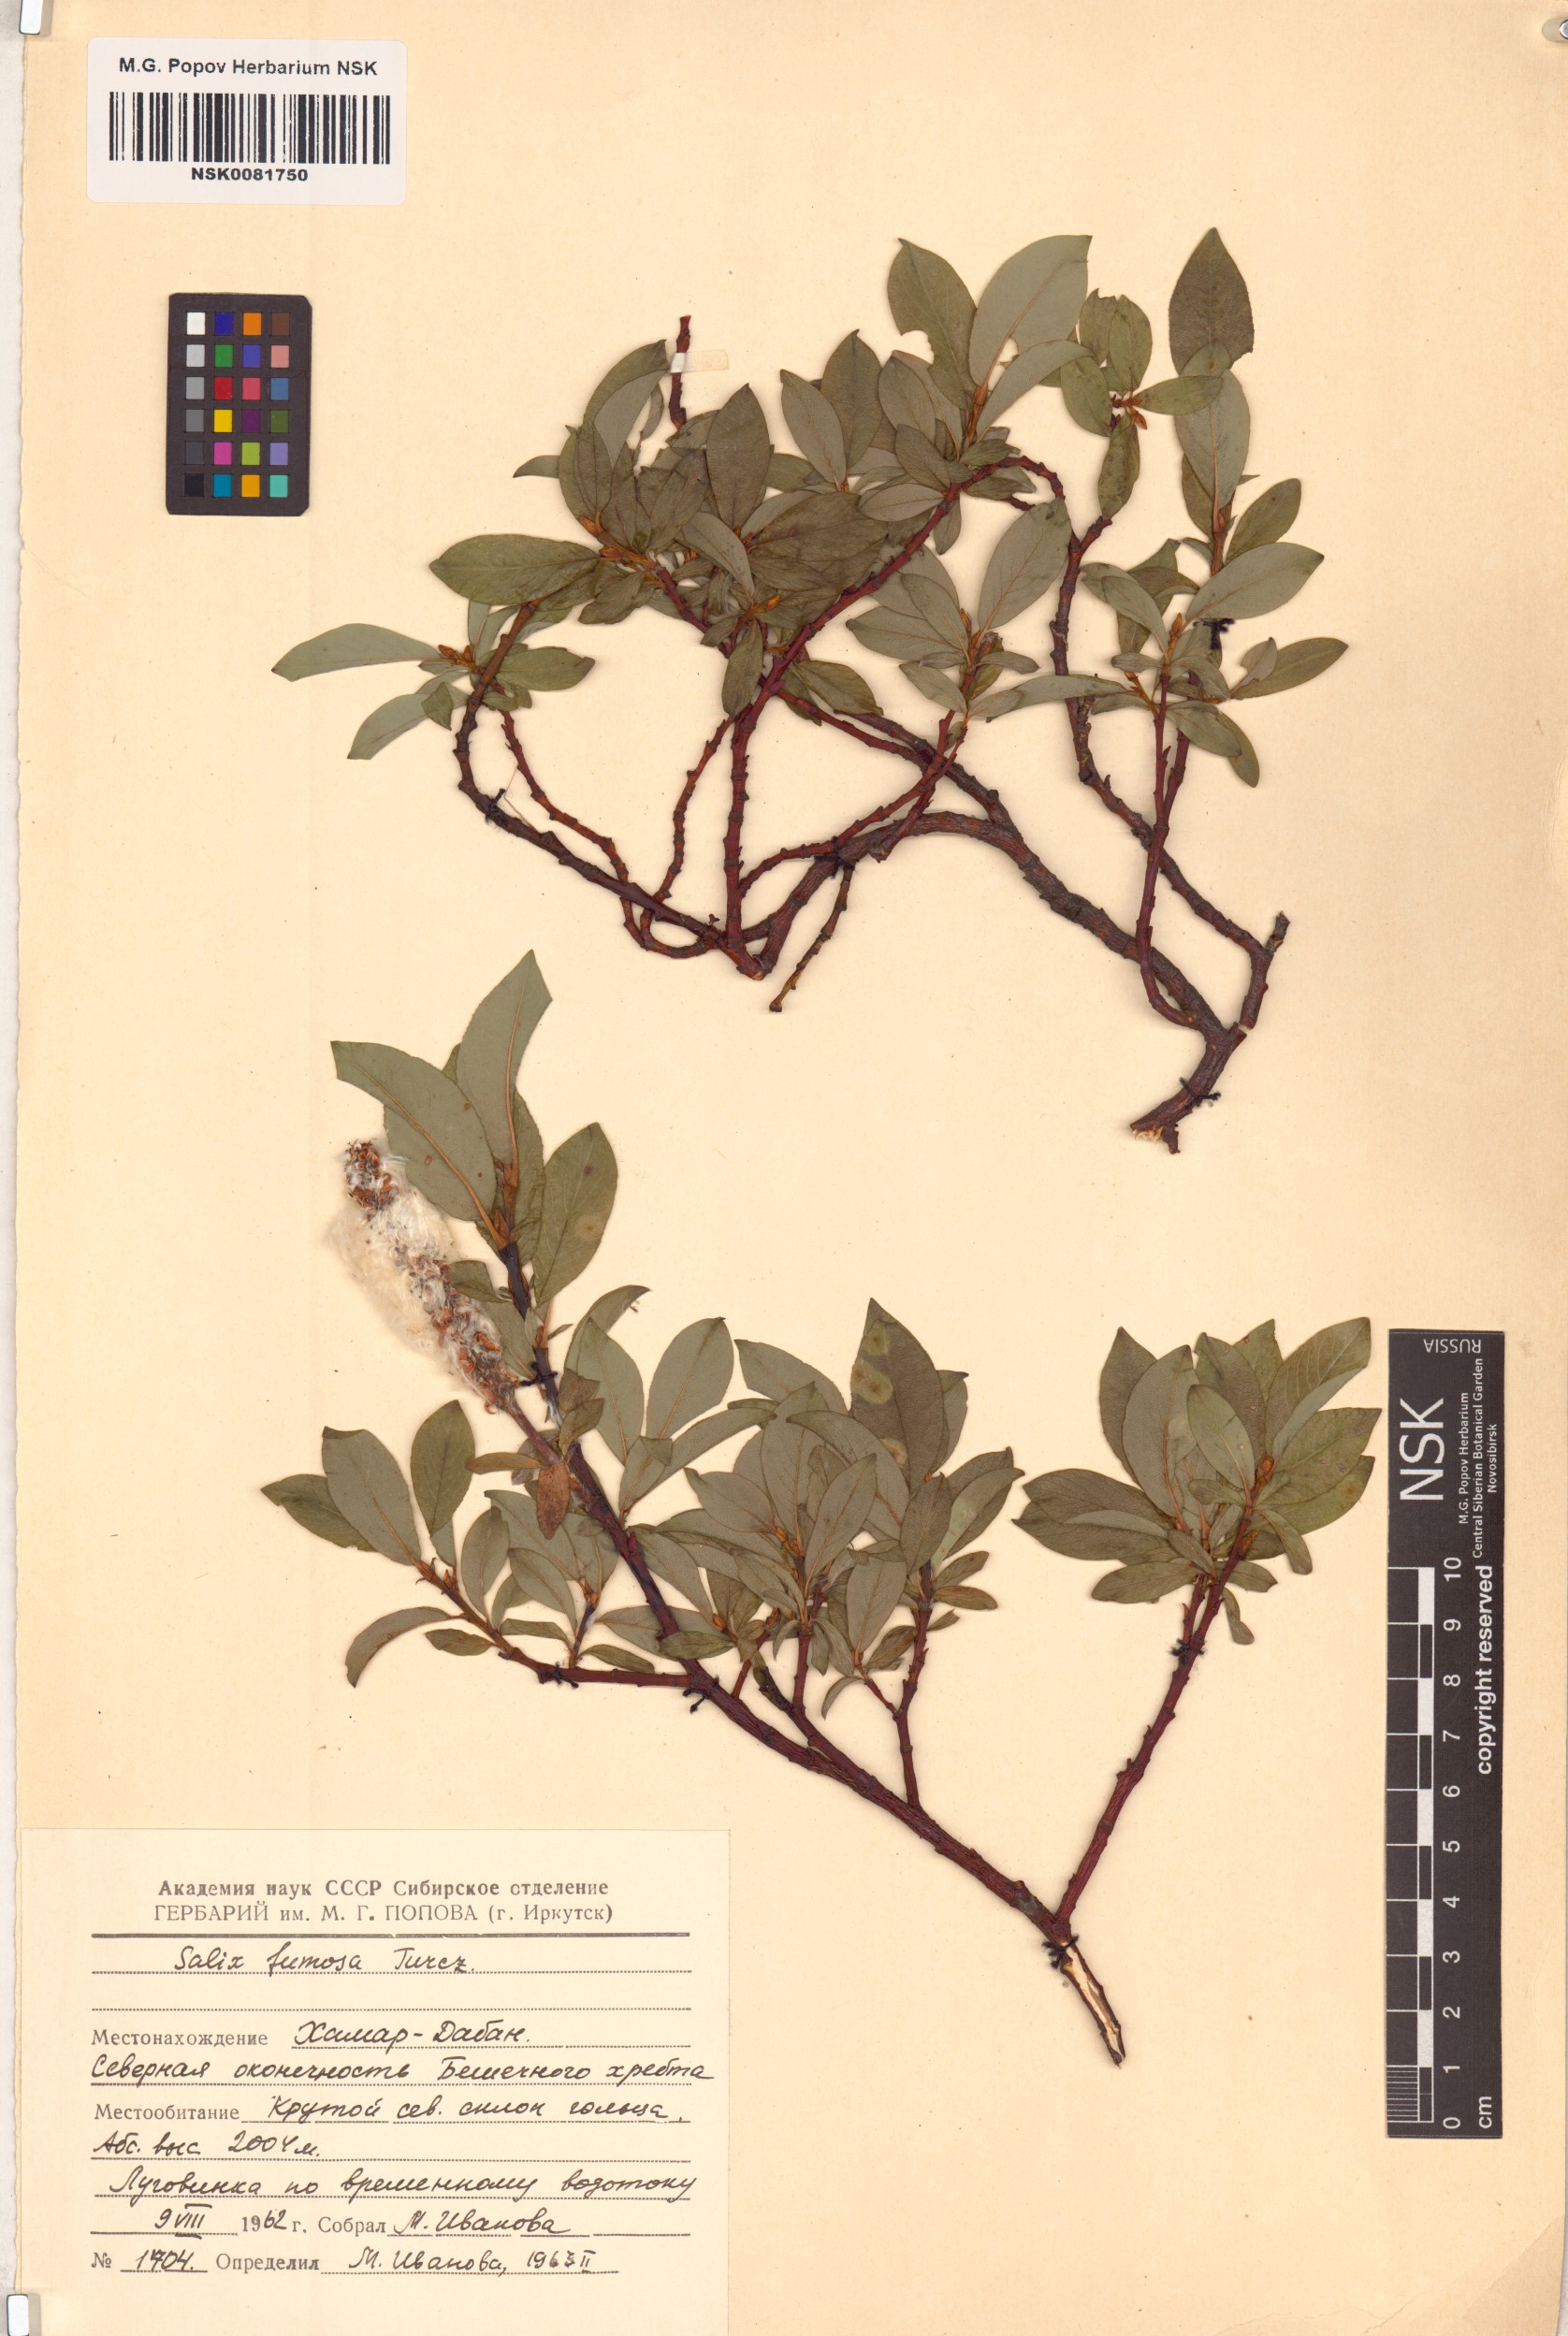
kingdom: Plantae
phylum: Tracheophyta
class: Magnoliopsida
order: Malpighiales
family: Salicaceae
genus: Salix
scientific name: Salix saxatilis
